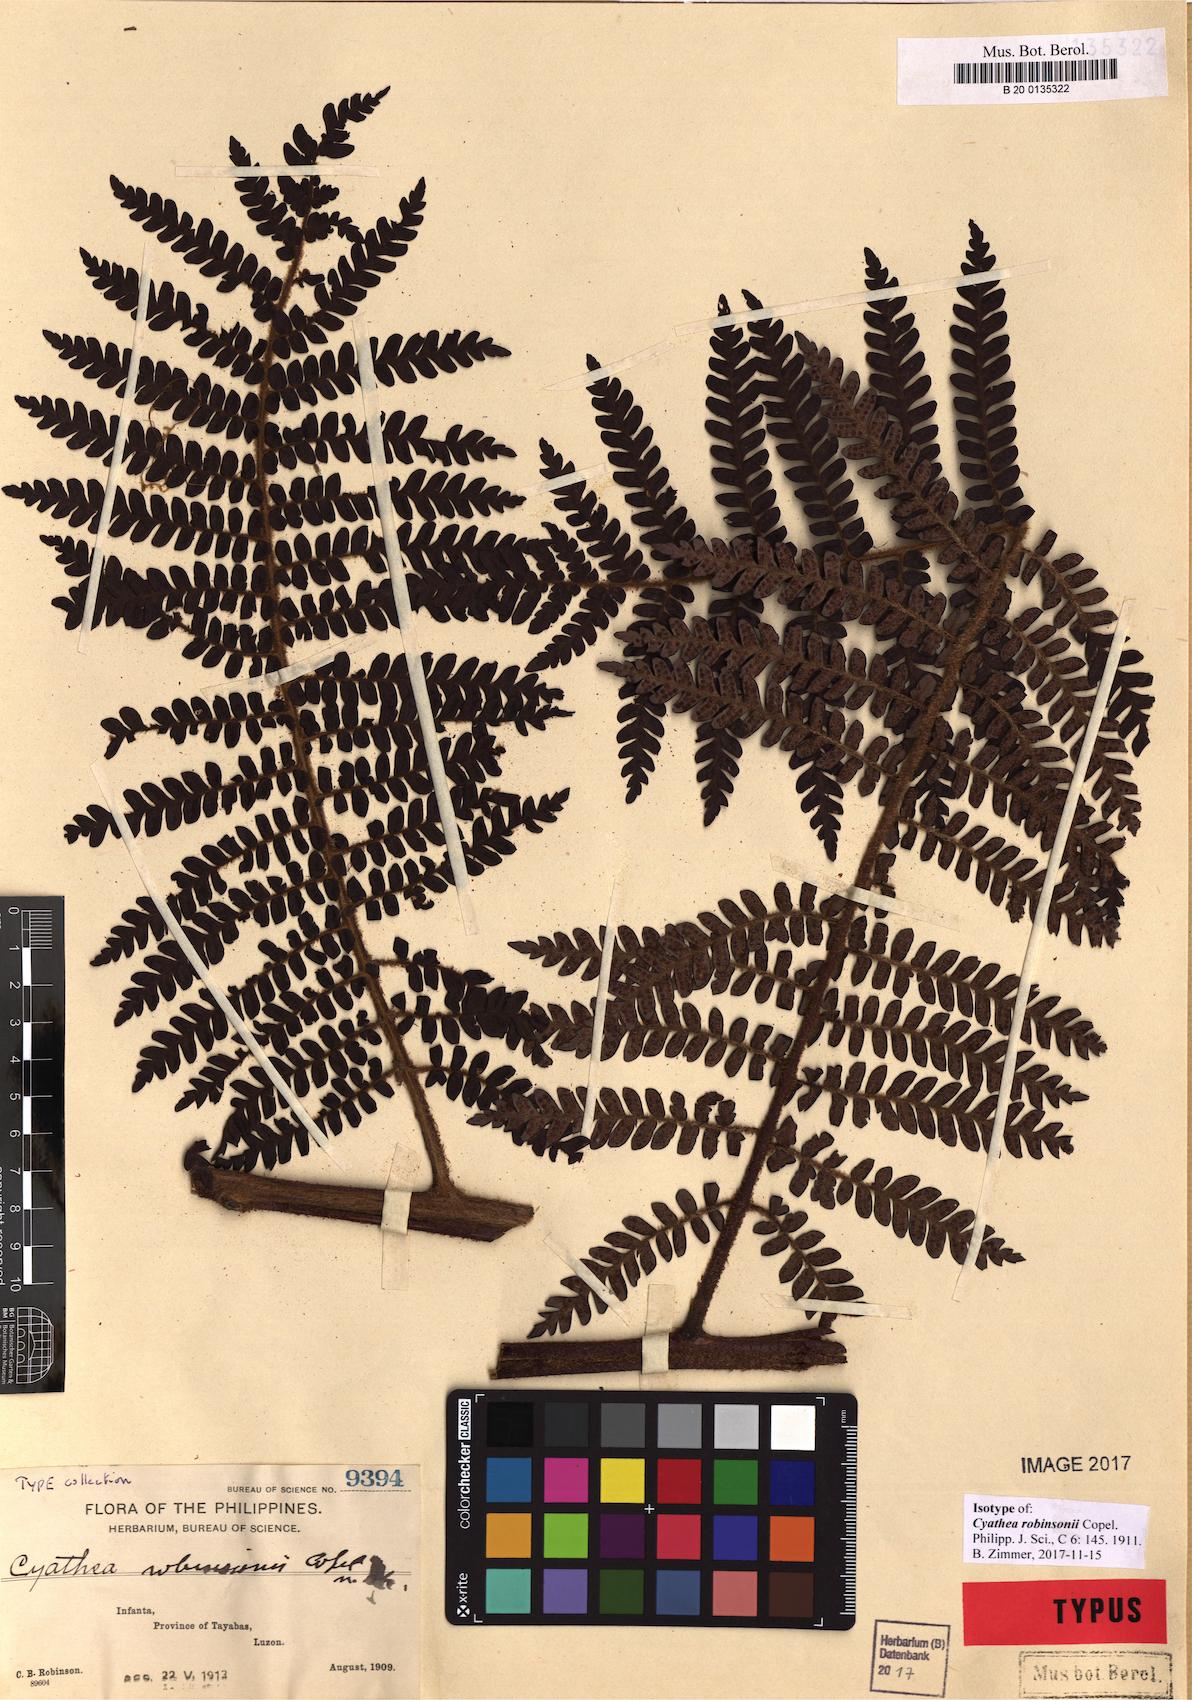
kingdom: Plantae
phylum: Tracheophyta
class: Polypodiopsida
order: Cyatheales
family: Cyatheaceae
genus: Sphaeropteris
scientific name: Sphaeropteris robinsonii
